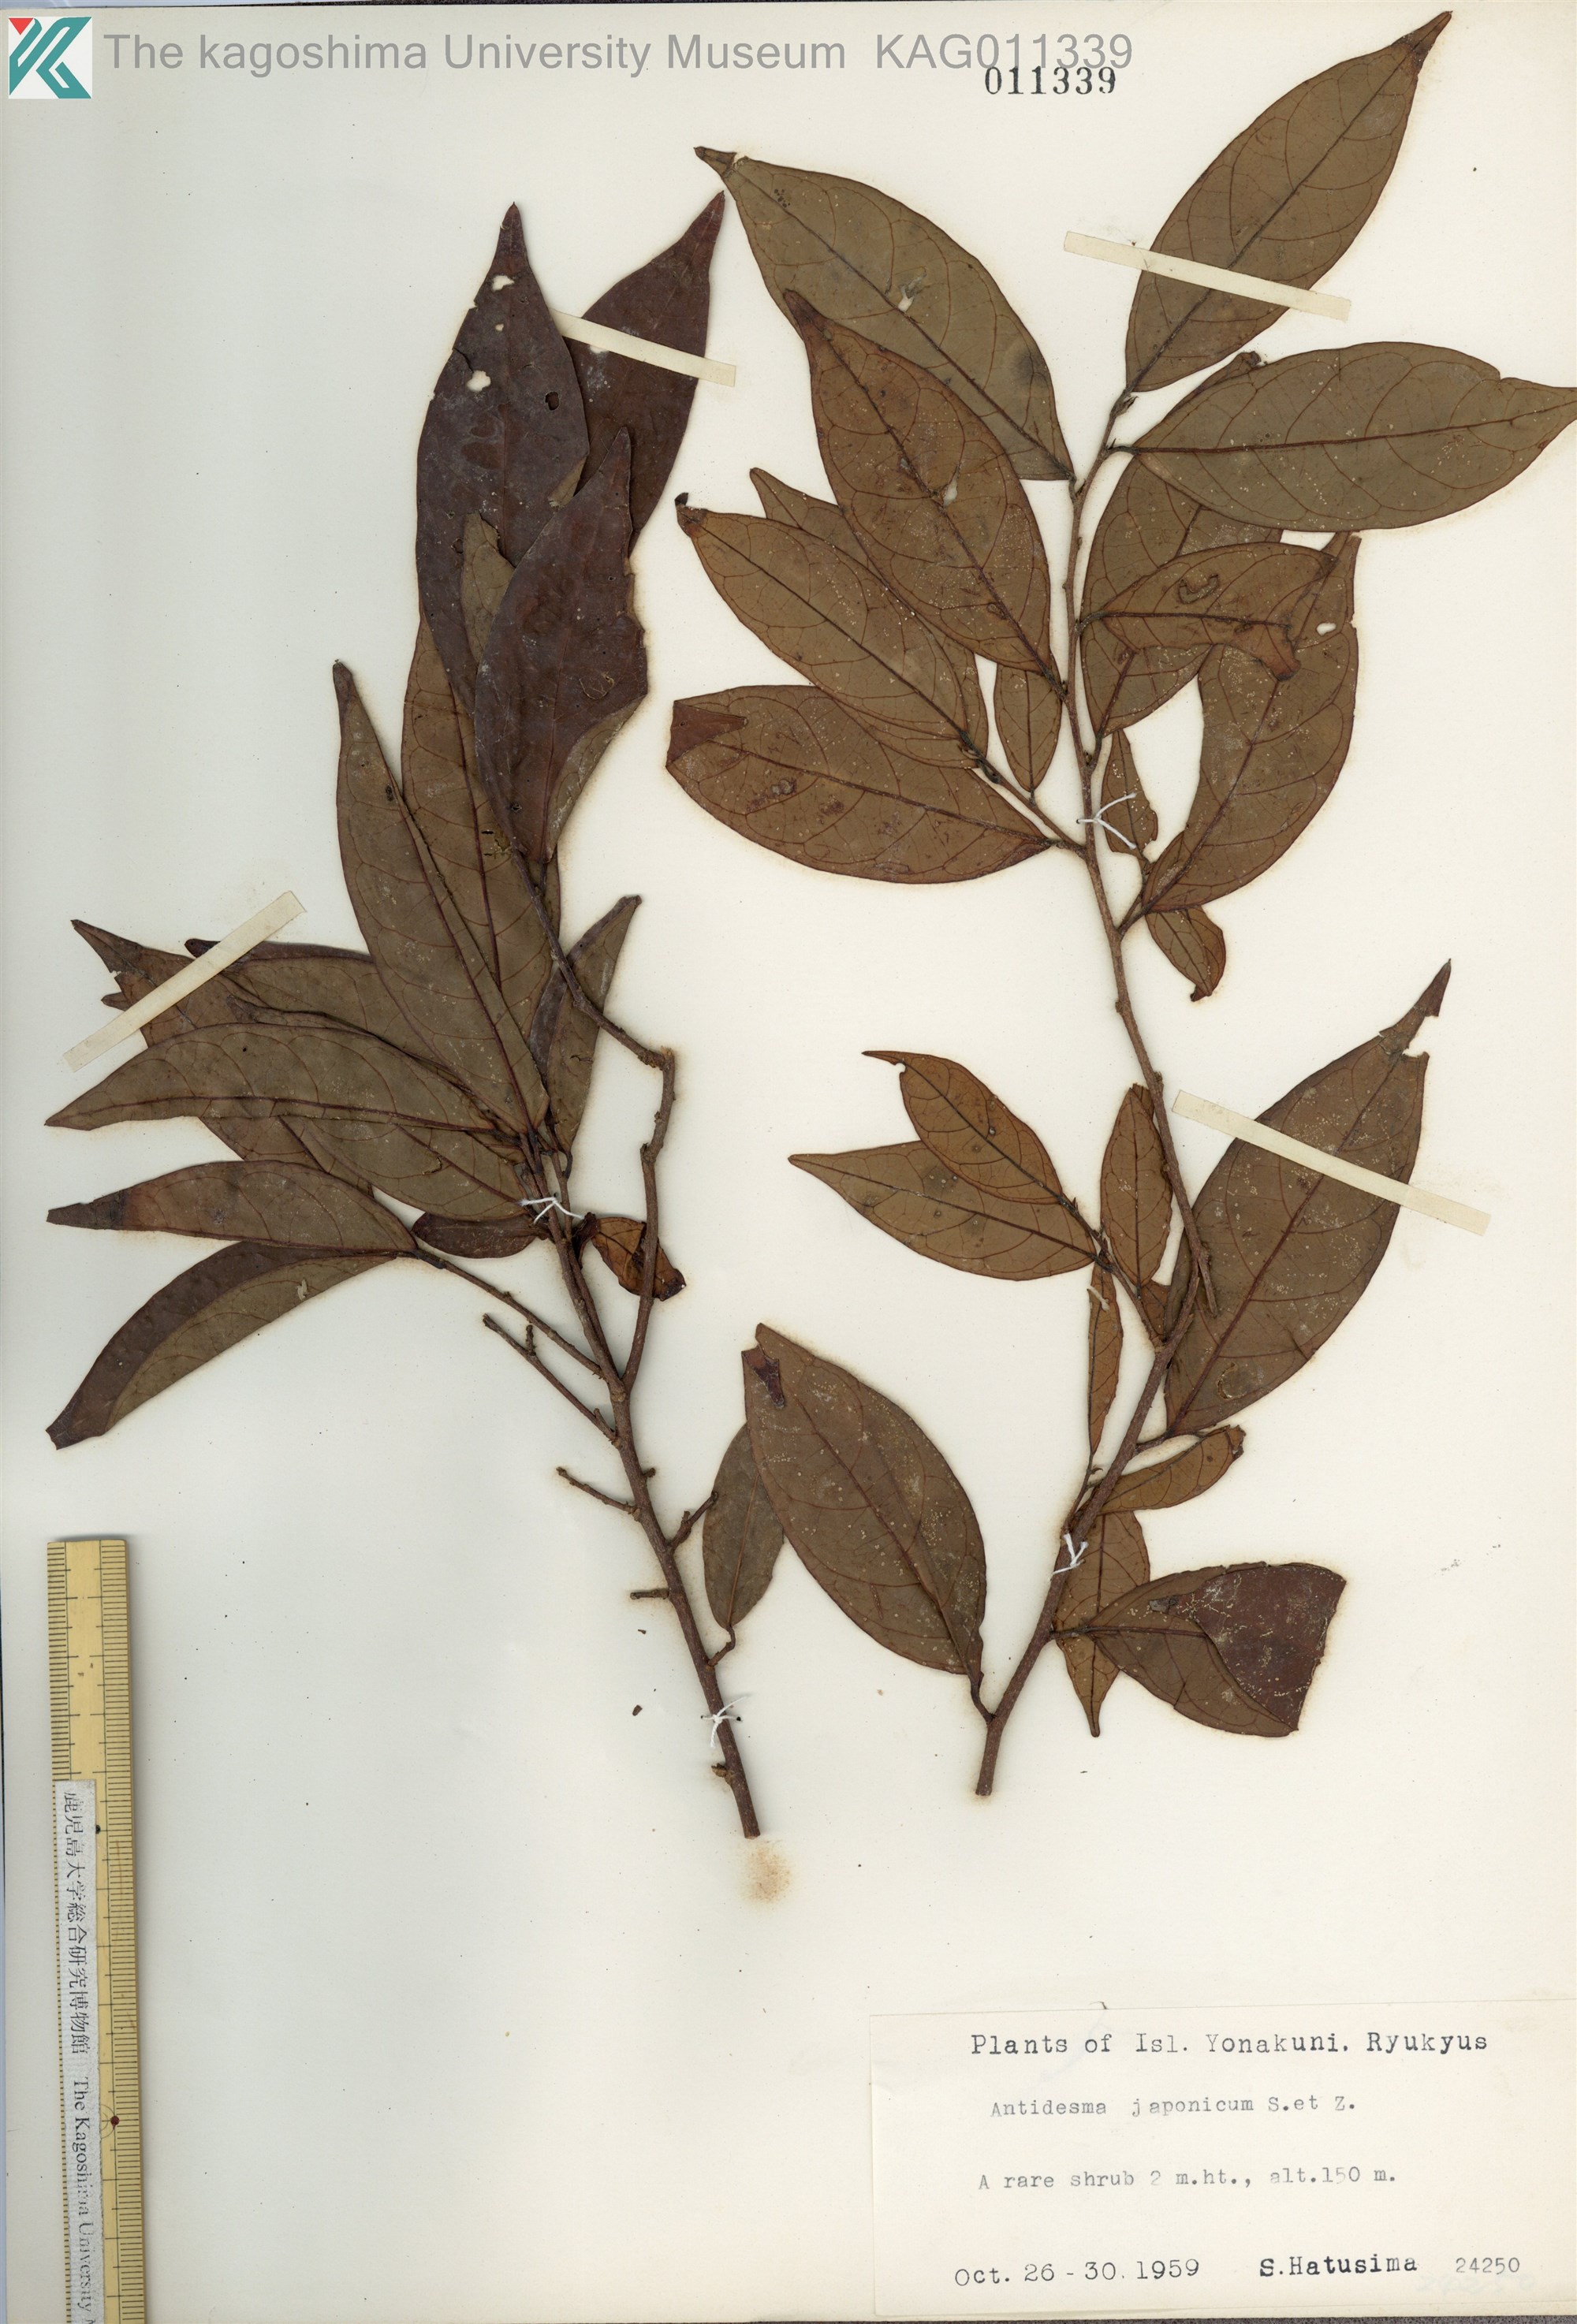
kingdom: Plantae
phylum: Tracheophyta
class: Magnoliopsida
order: Malpighiales
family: Phyllanthaceae
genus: Antidesma
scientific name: Antidesma japonicum
